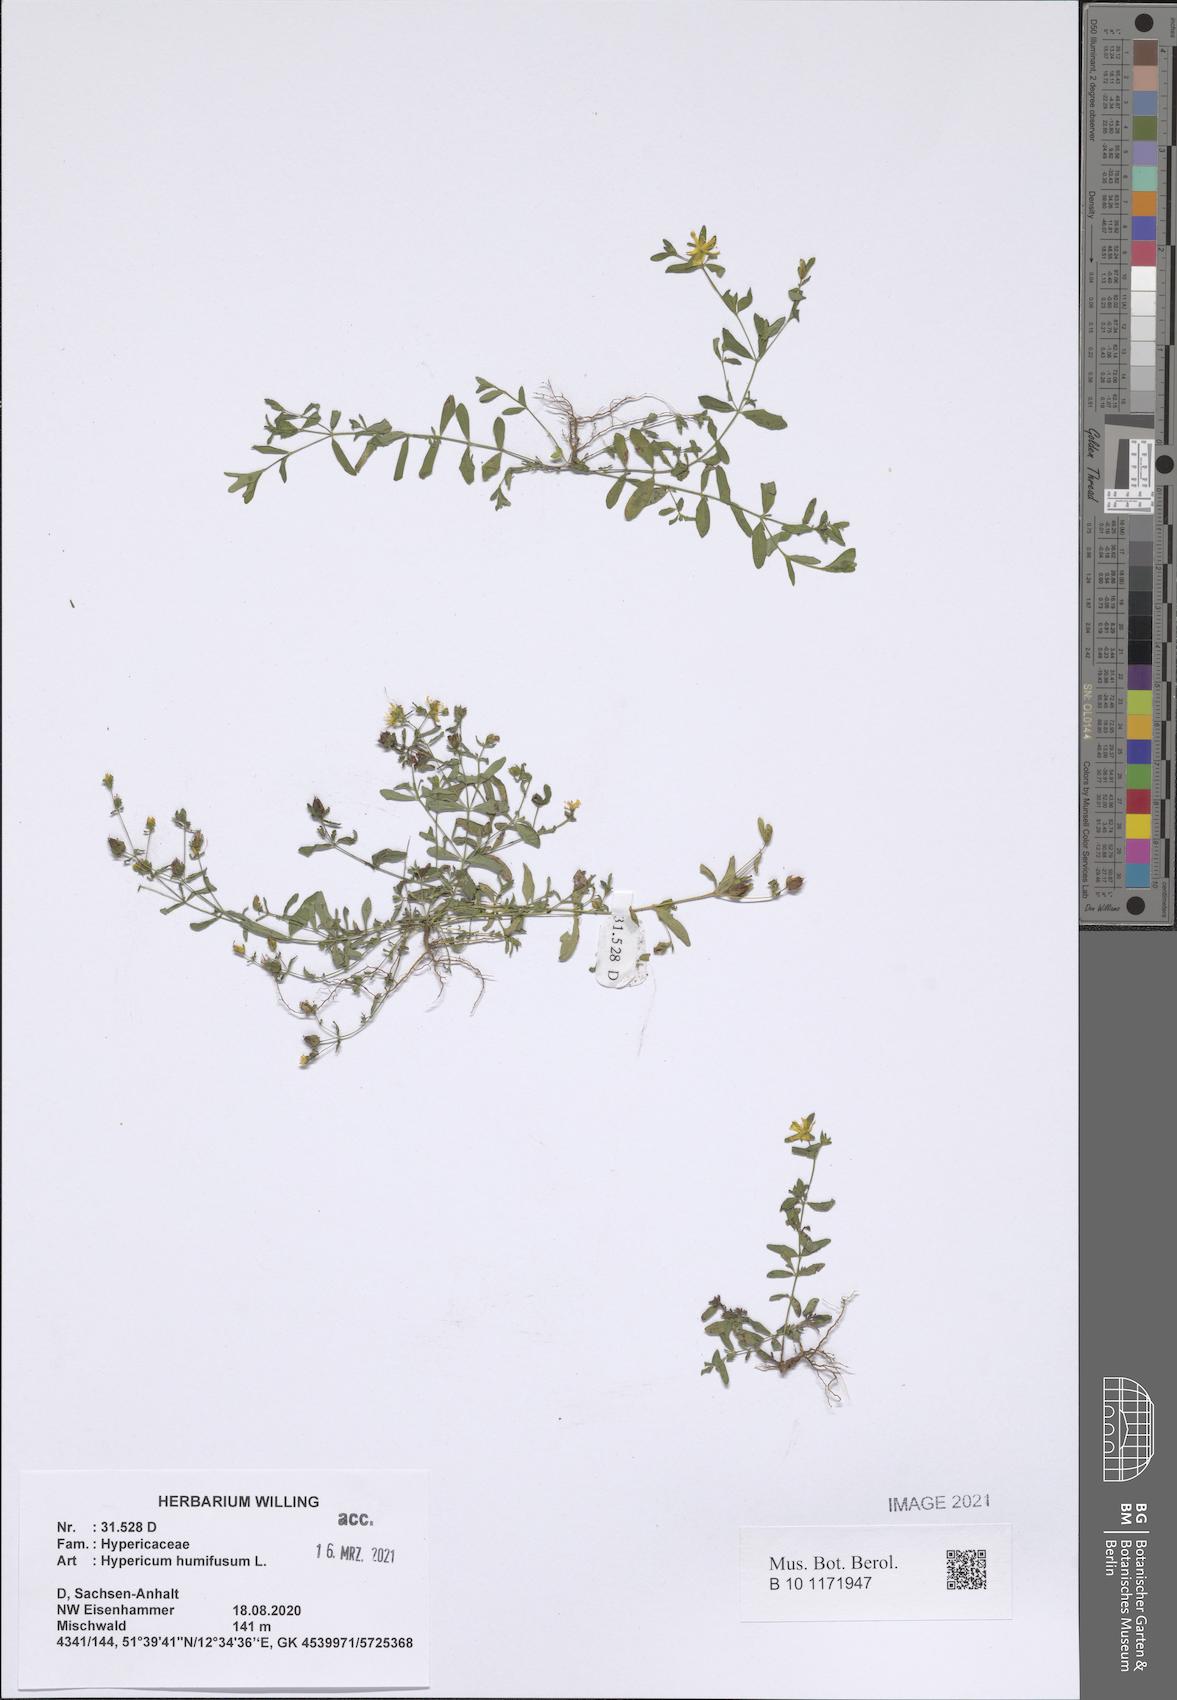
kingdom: Plantae
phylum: Tracheophyta
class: Magnoliopsida
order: Malpighiales
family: Hypericaceae
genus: Hypericum
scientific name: Hypericum humifusum
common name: Trailing st. john's-wort
